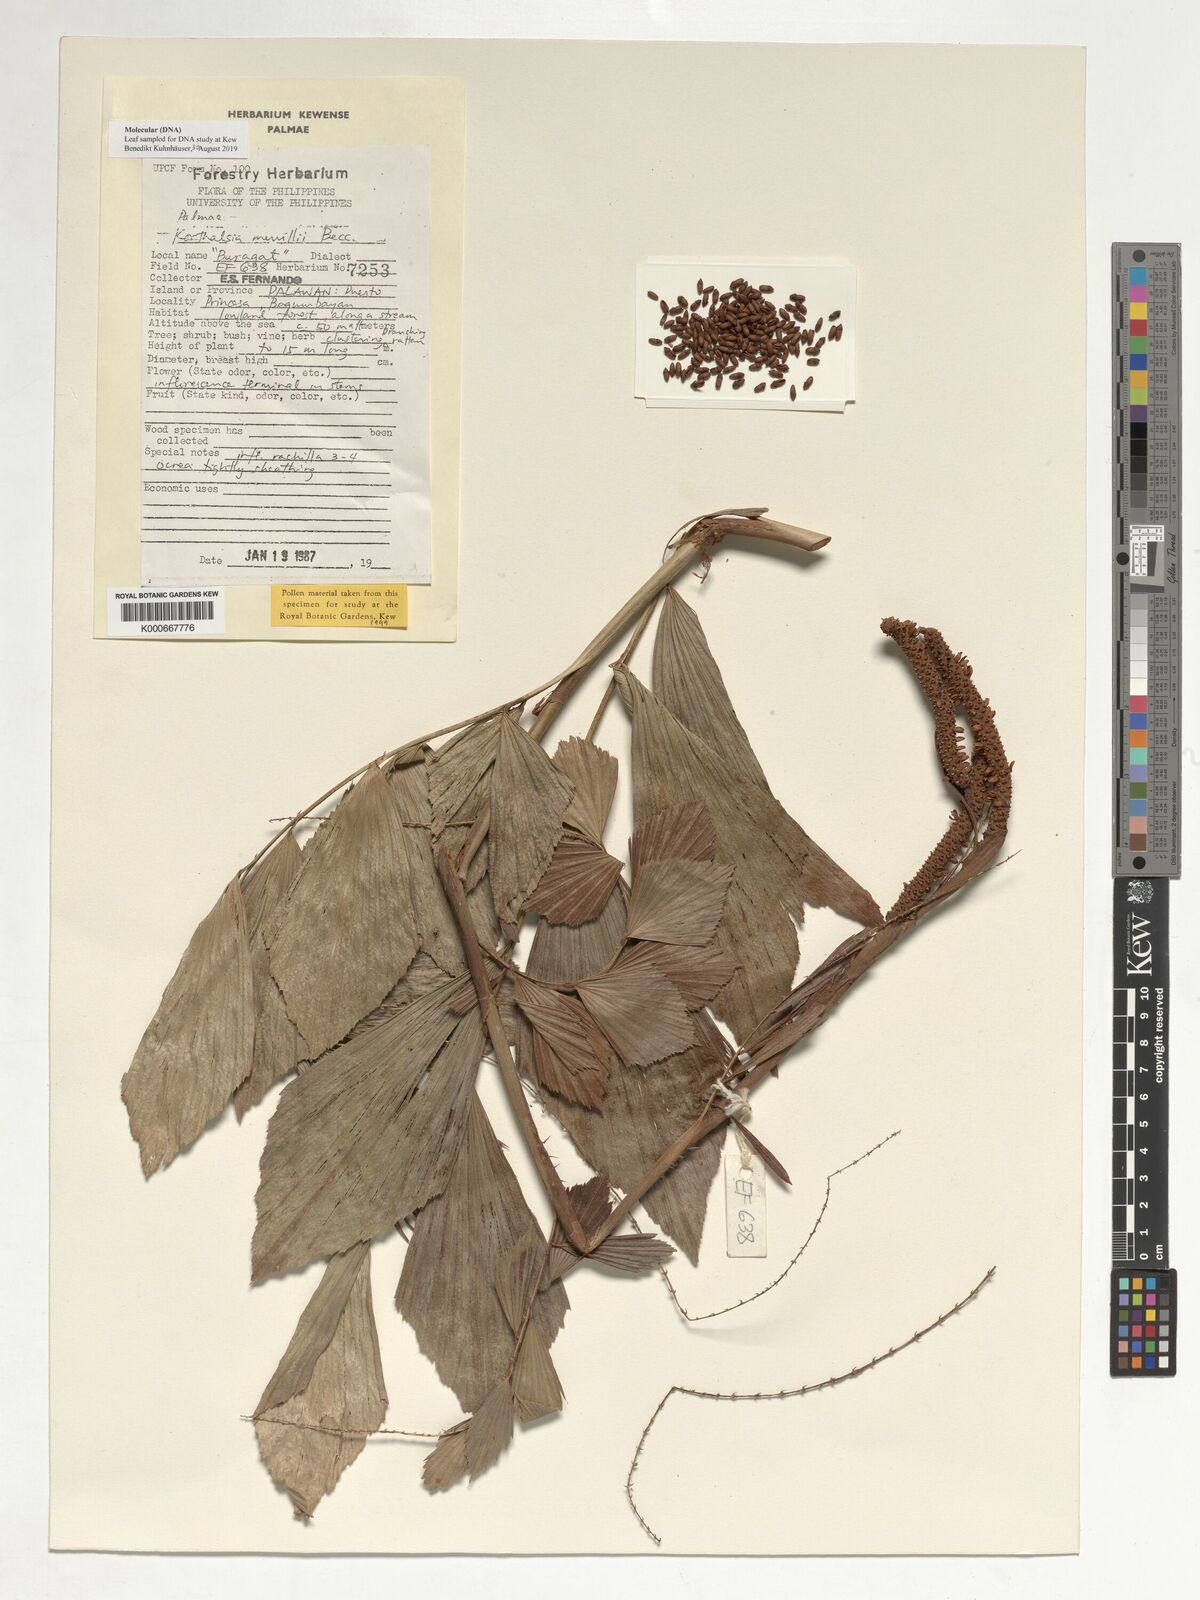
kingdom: Plantae
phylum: Tracheophyta
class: Liliopsida
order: Arecales
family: Arecaceae
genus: Korthalsia
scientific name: Korthalsia merrillii
